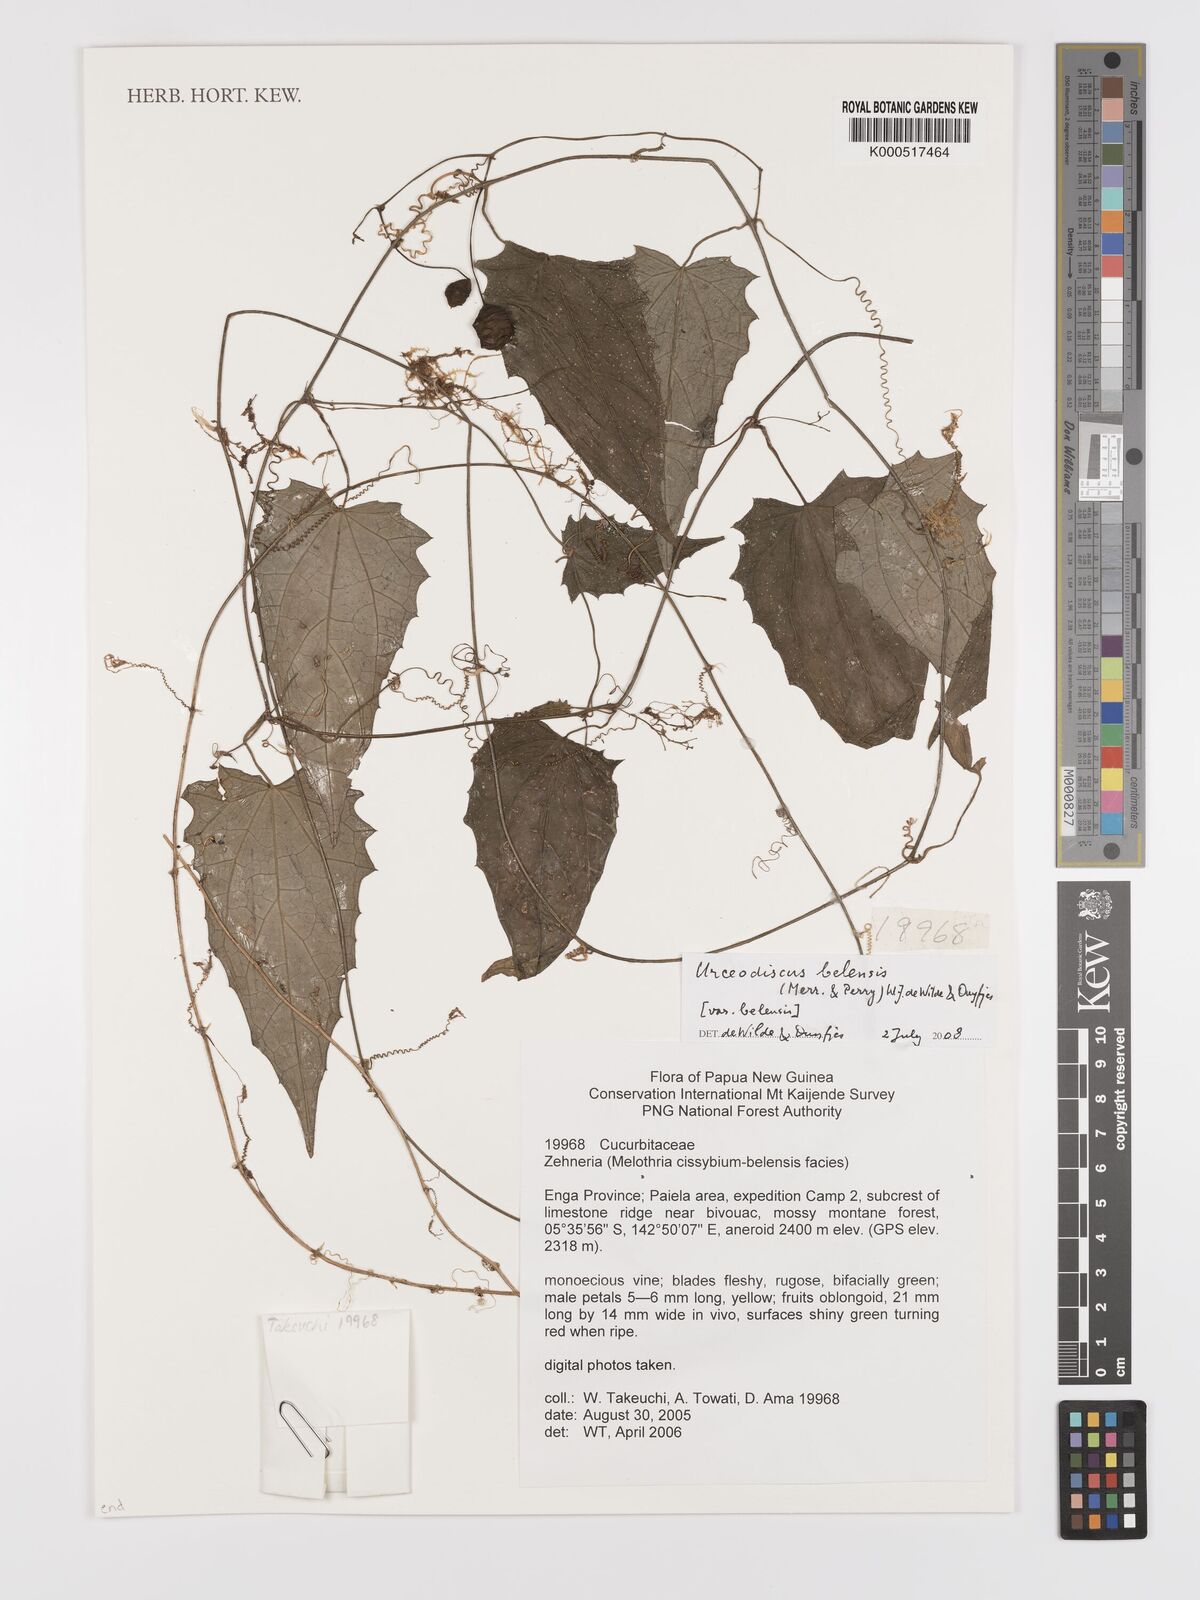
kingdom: Plantae
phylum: Tracheophyta
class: Magnoliopsida
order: Cucurbitales
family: Cucurbitaceae
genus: Papuasicyos
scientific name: Papuasicyos belensis
